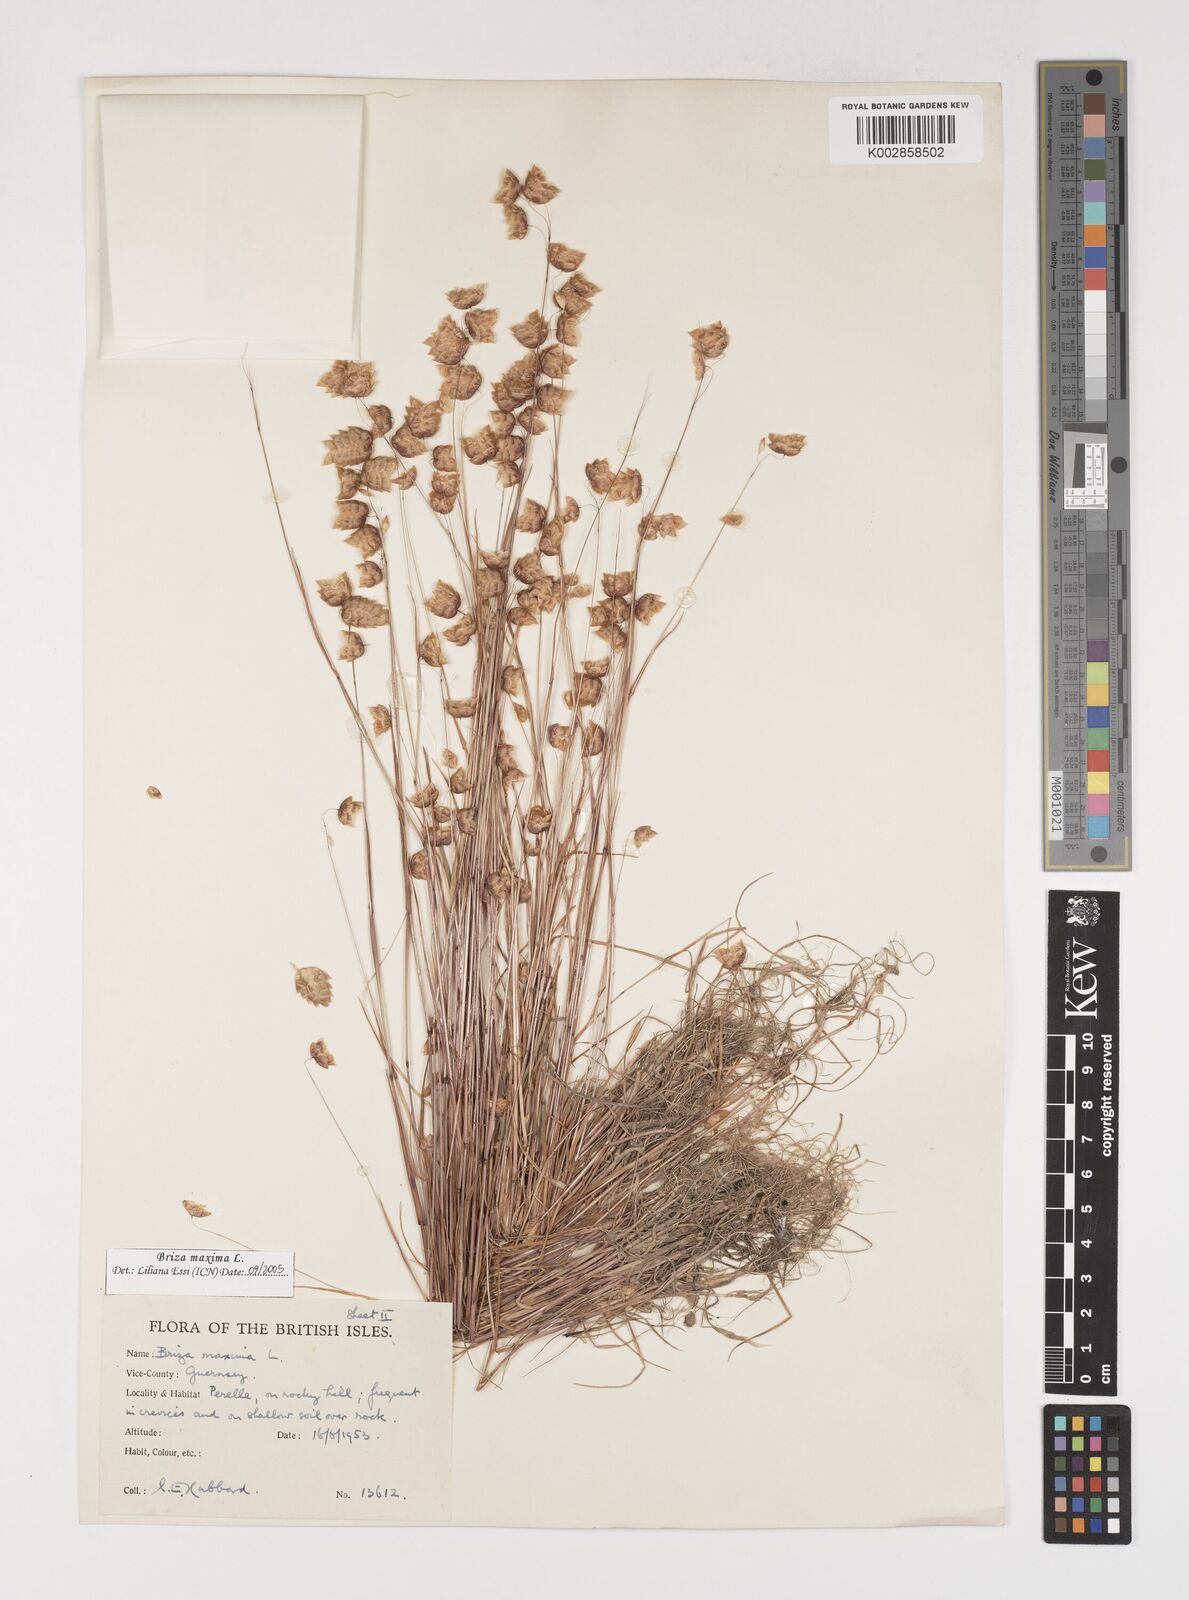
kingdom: Plantae
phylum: Tracheophyta
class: Liliopsida
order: Poales
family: Poaceae
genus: Briza
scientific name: Briza maxima
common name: Big quakinggrass
